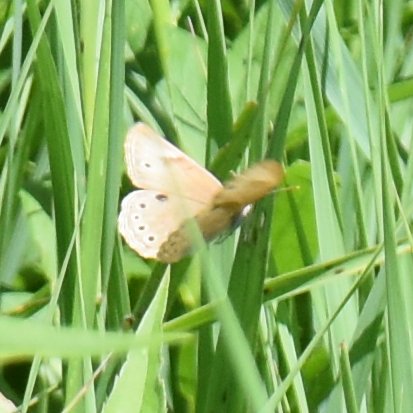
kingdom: Animalia
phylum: Arthropoda
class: Insecta
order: Lepidoptera
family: Nymphalidae
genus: Lethe
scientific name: Lethe eurydice
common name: Appalachian Eyed Brown
